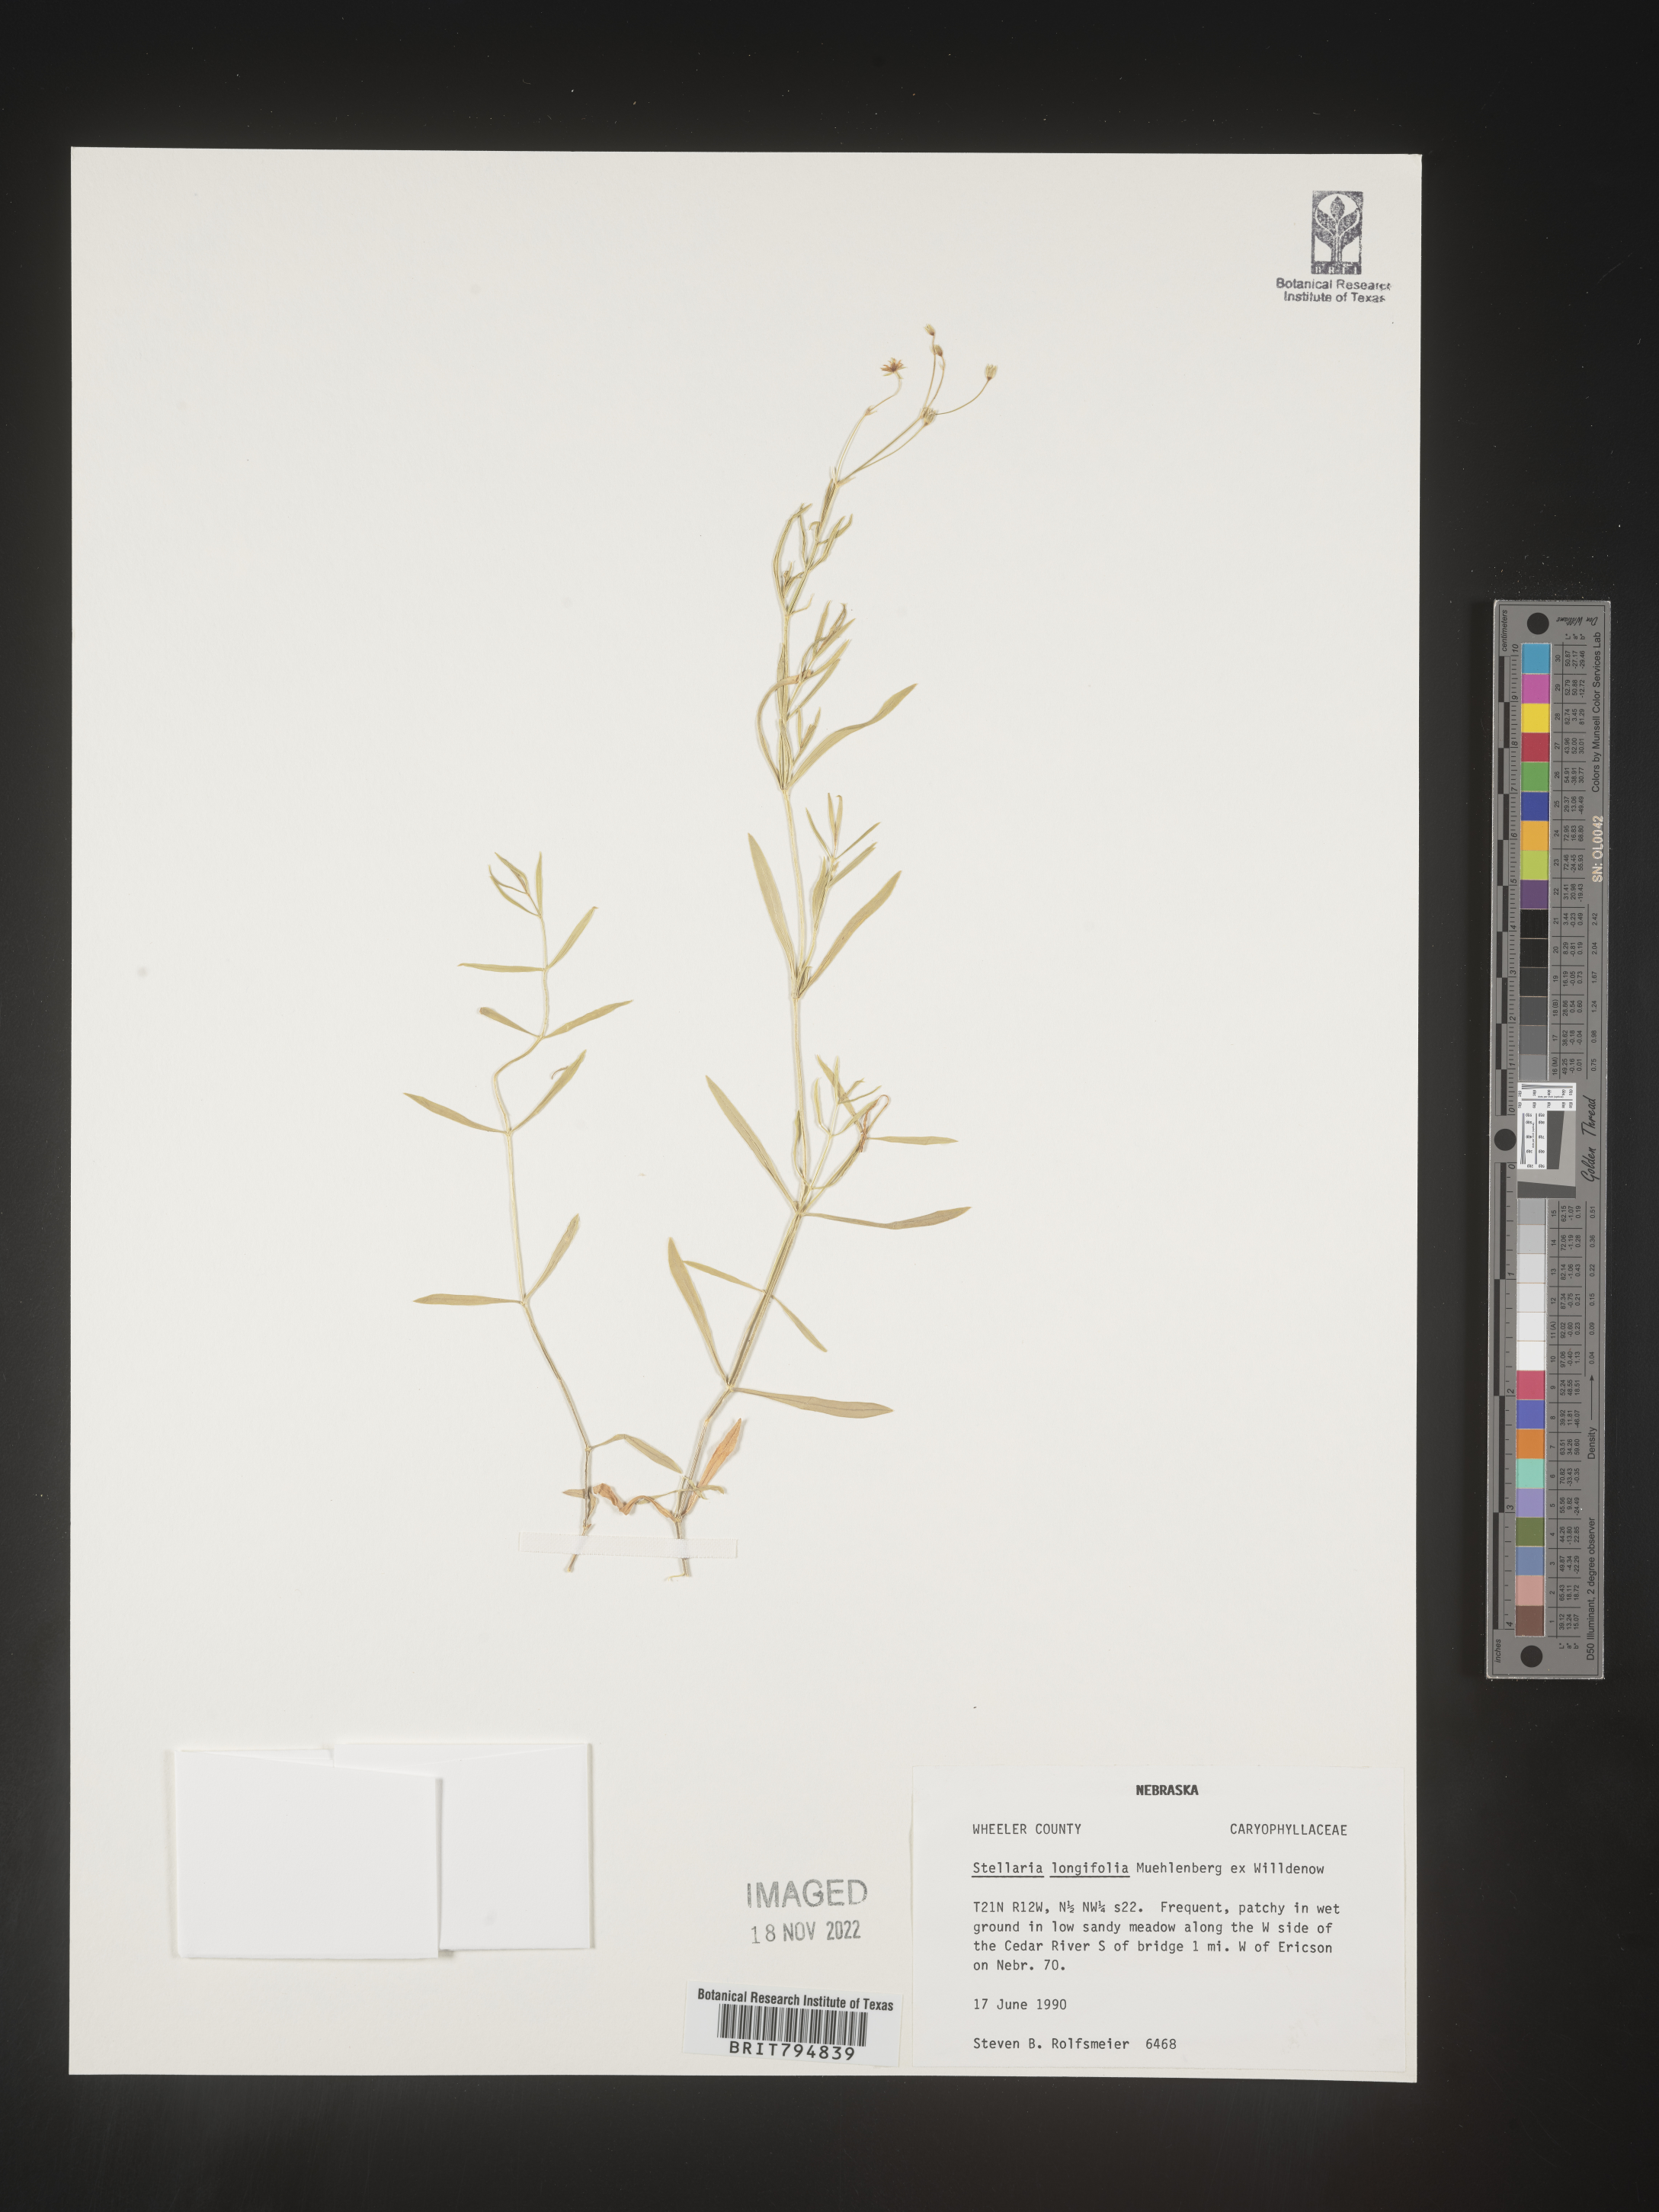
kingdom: Plantae
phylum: Tracheophyta
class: Magnoliopsida
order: Caryophyllales
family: Caryophyllaceae
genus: Stellaria
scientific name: Stellaria longifolia
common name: Long-leaved chickweed
